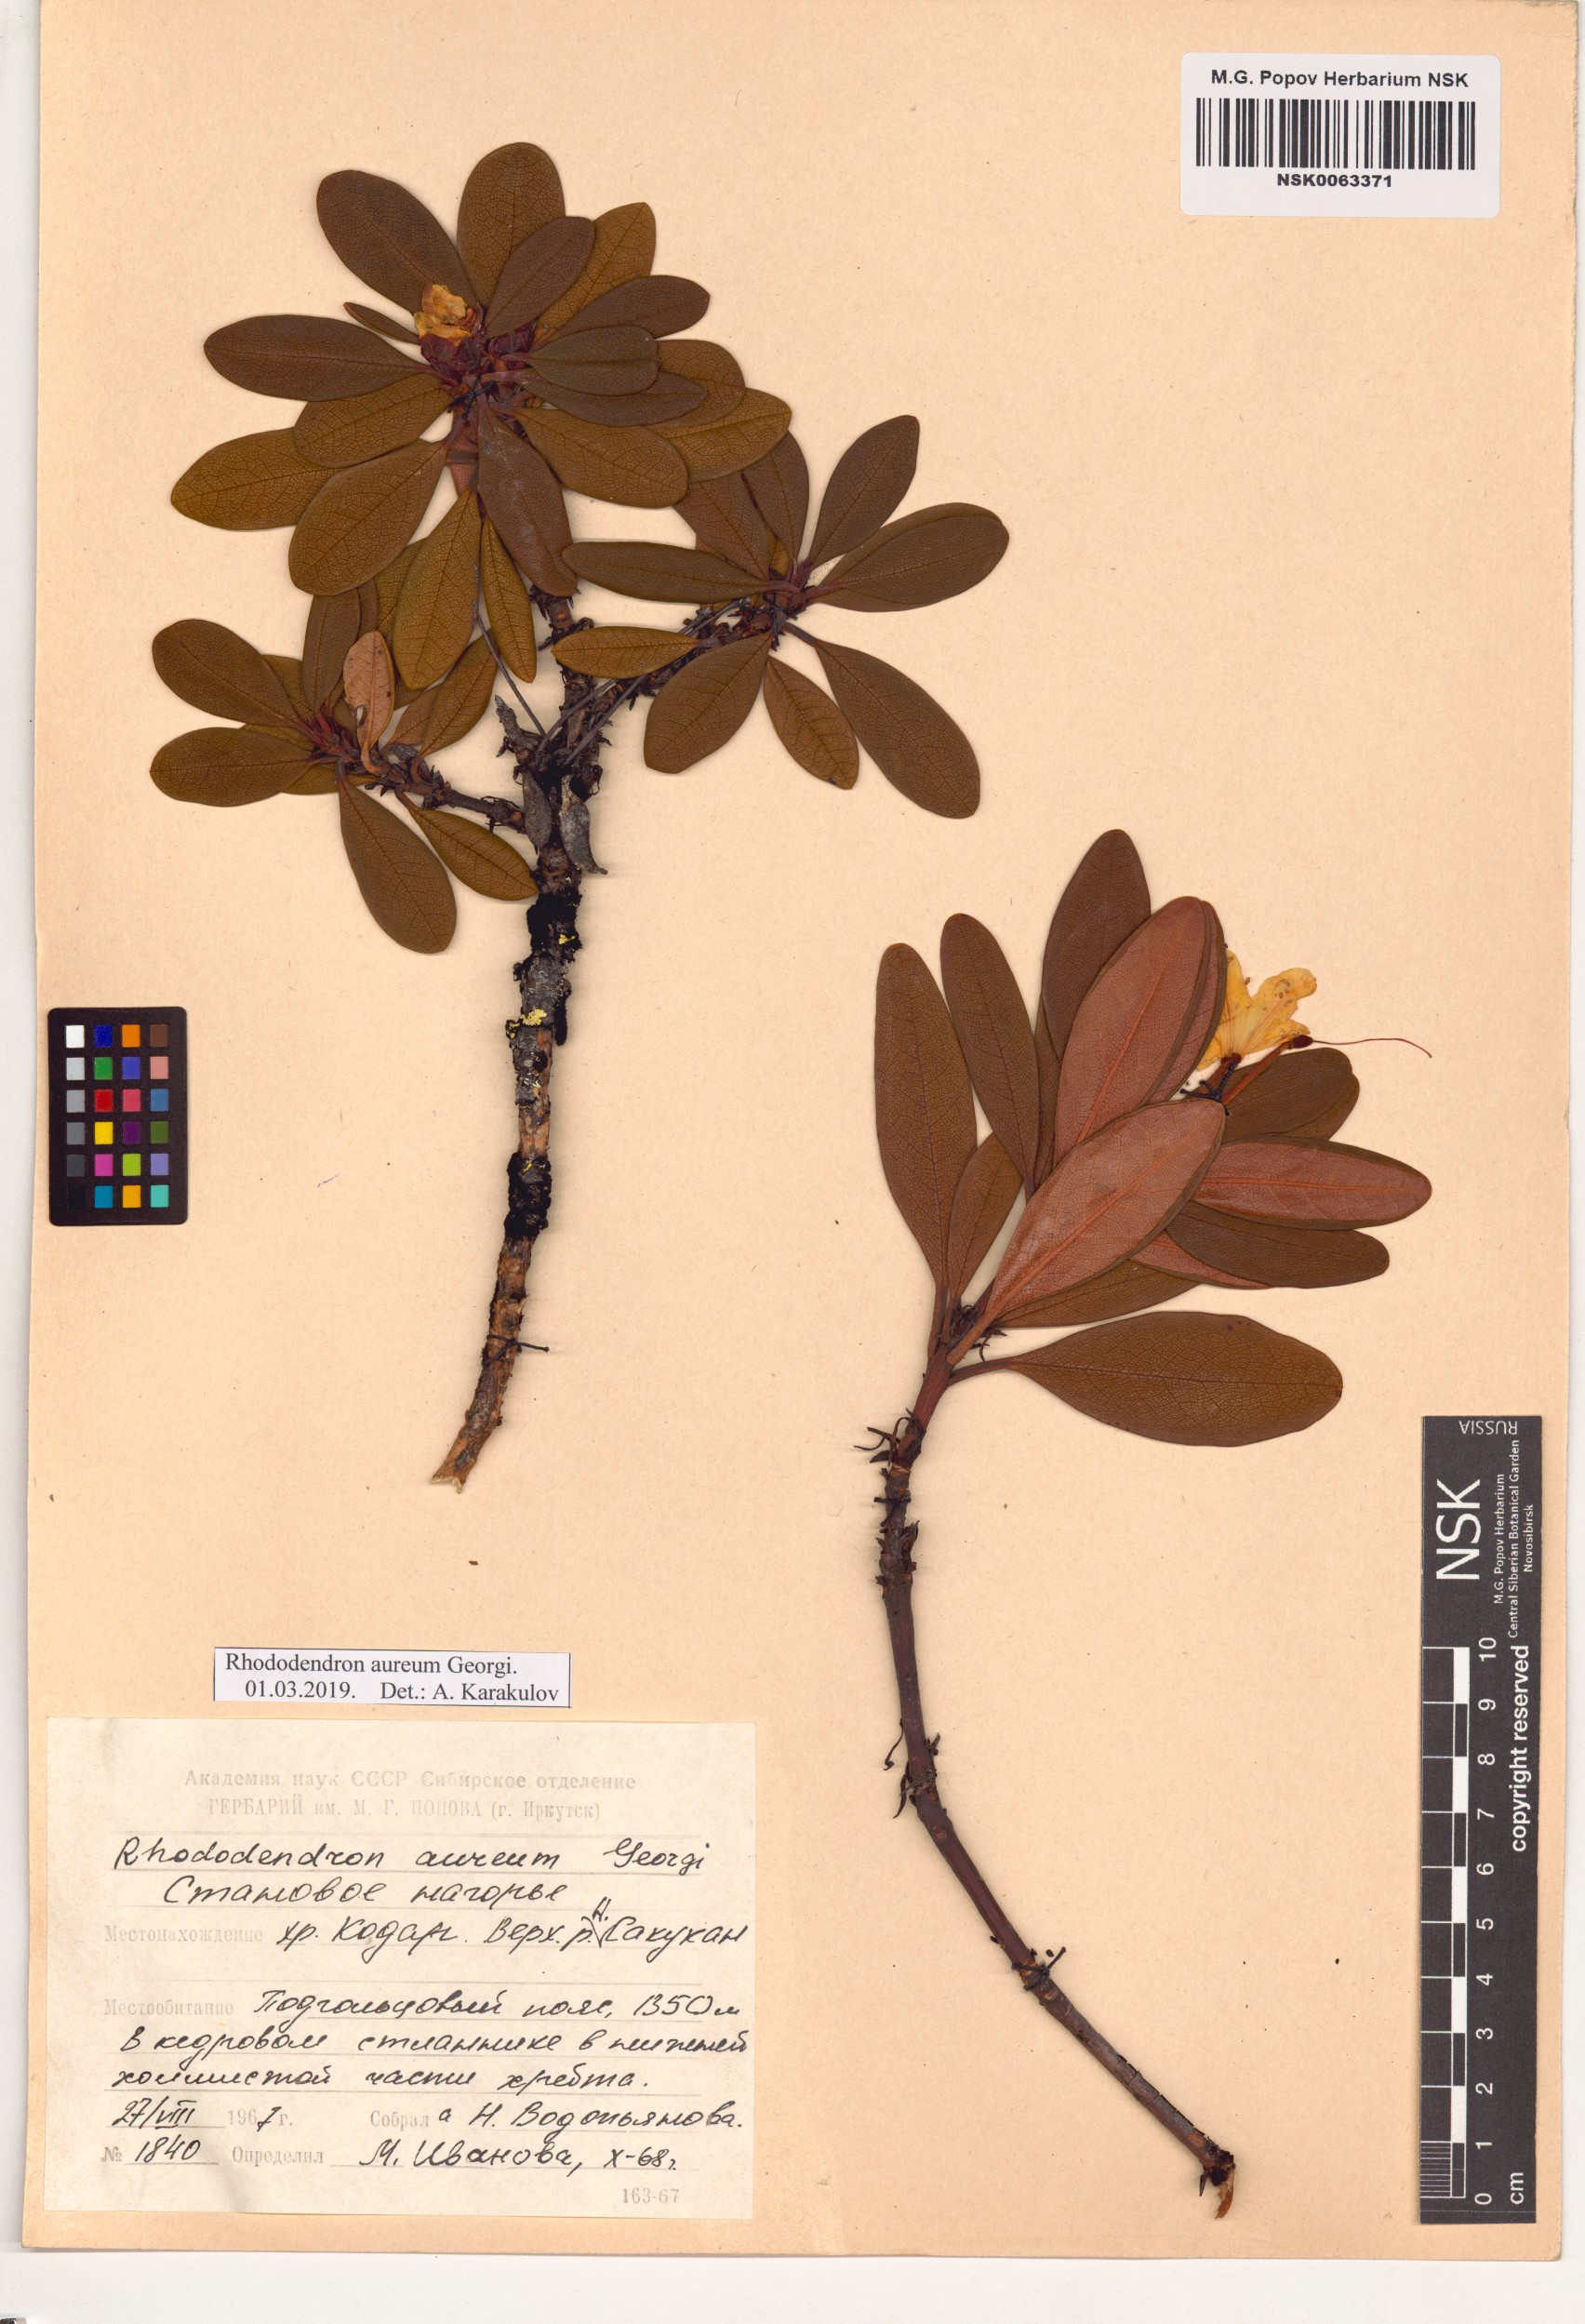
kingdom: Plantae
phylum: Tracheophyta
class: Magnoliopsida
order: Ericales
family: Ericaceae
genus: Rhododendron
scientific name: Rhododendron aureum
